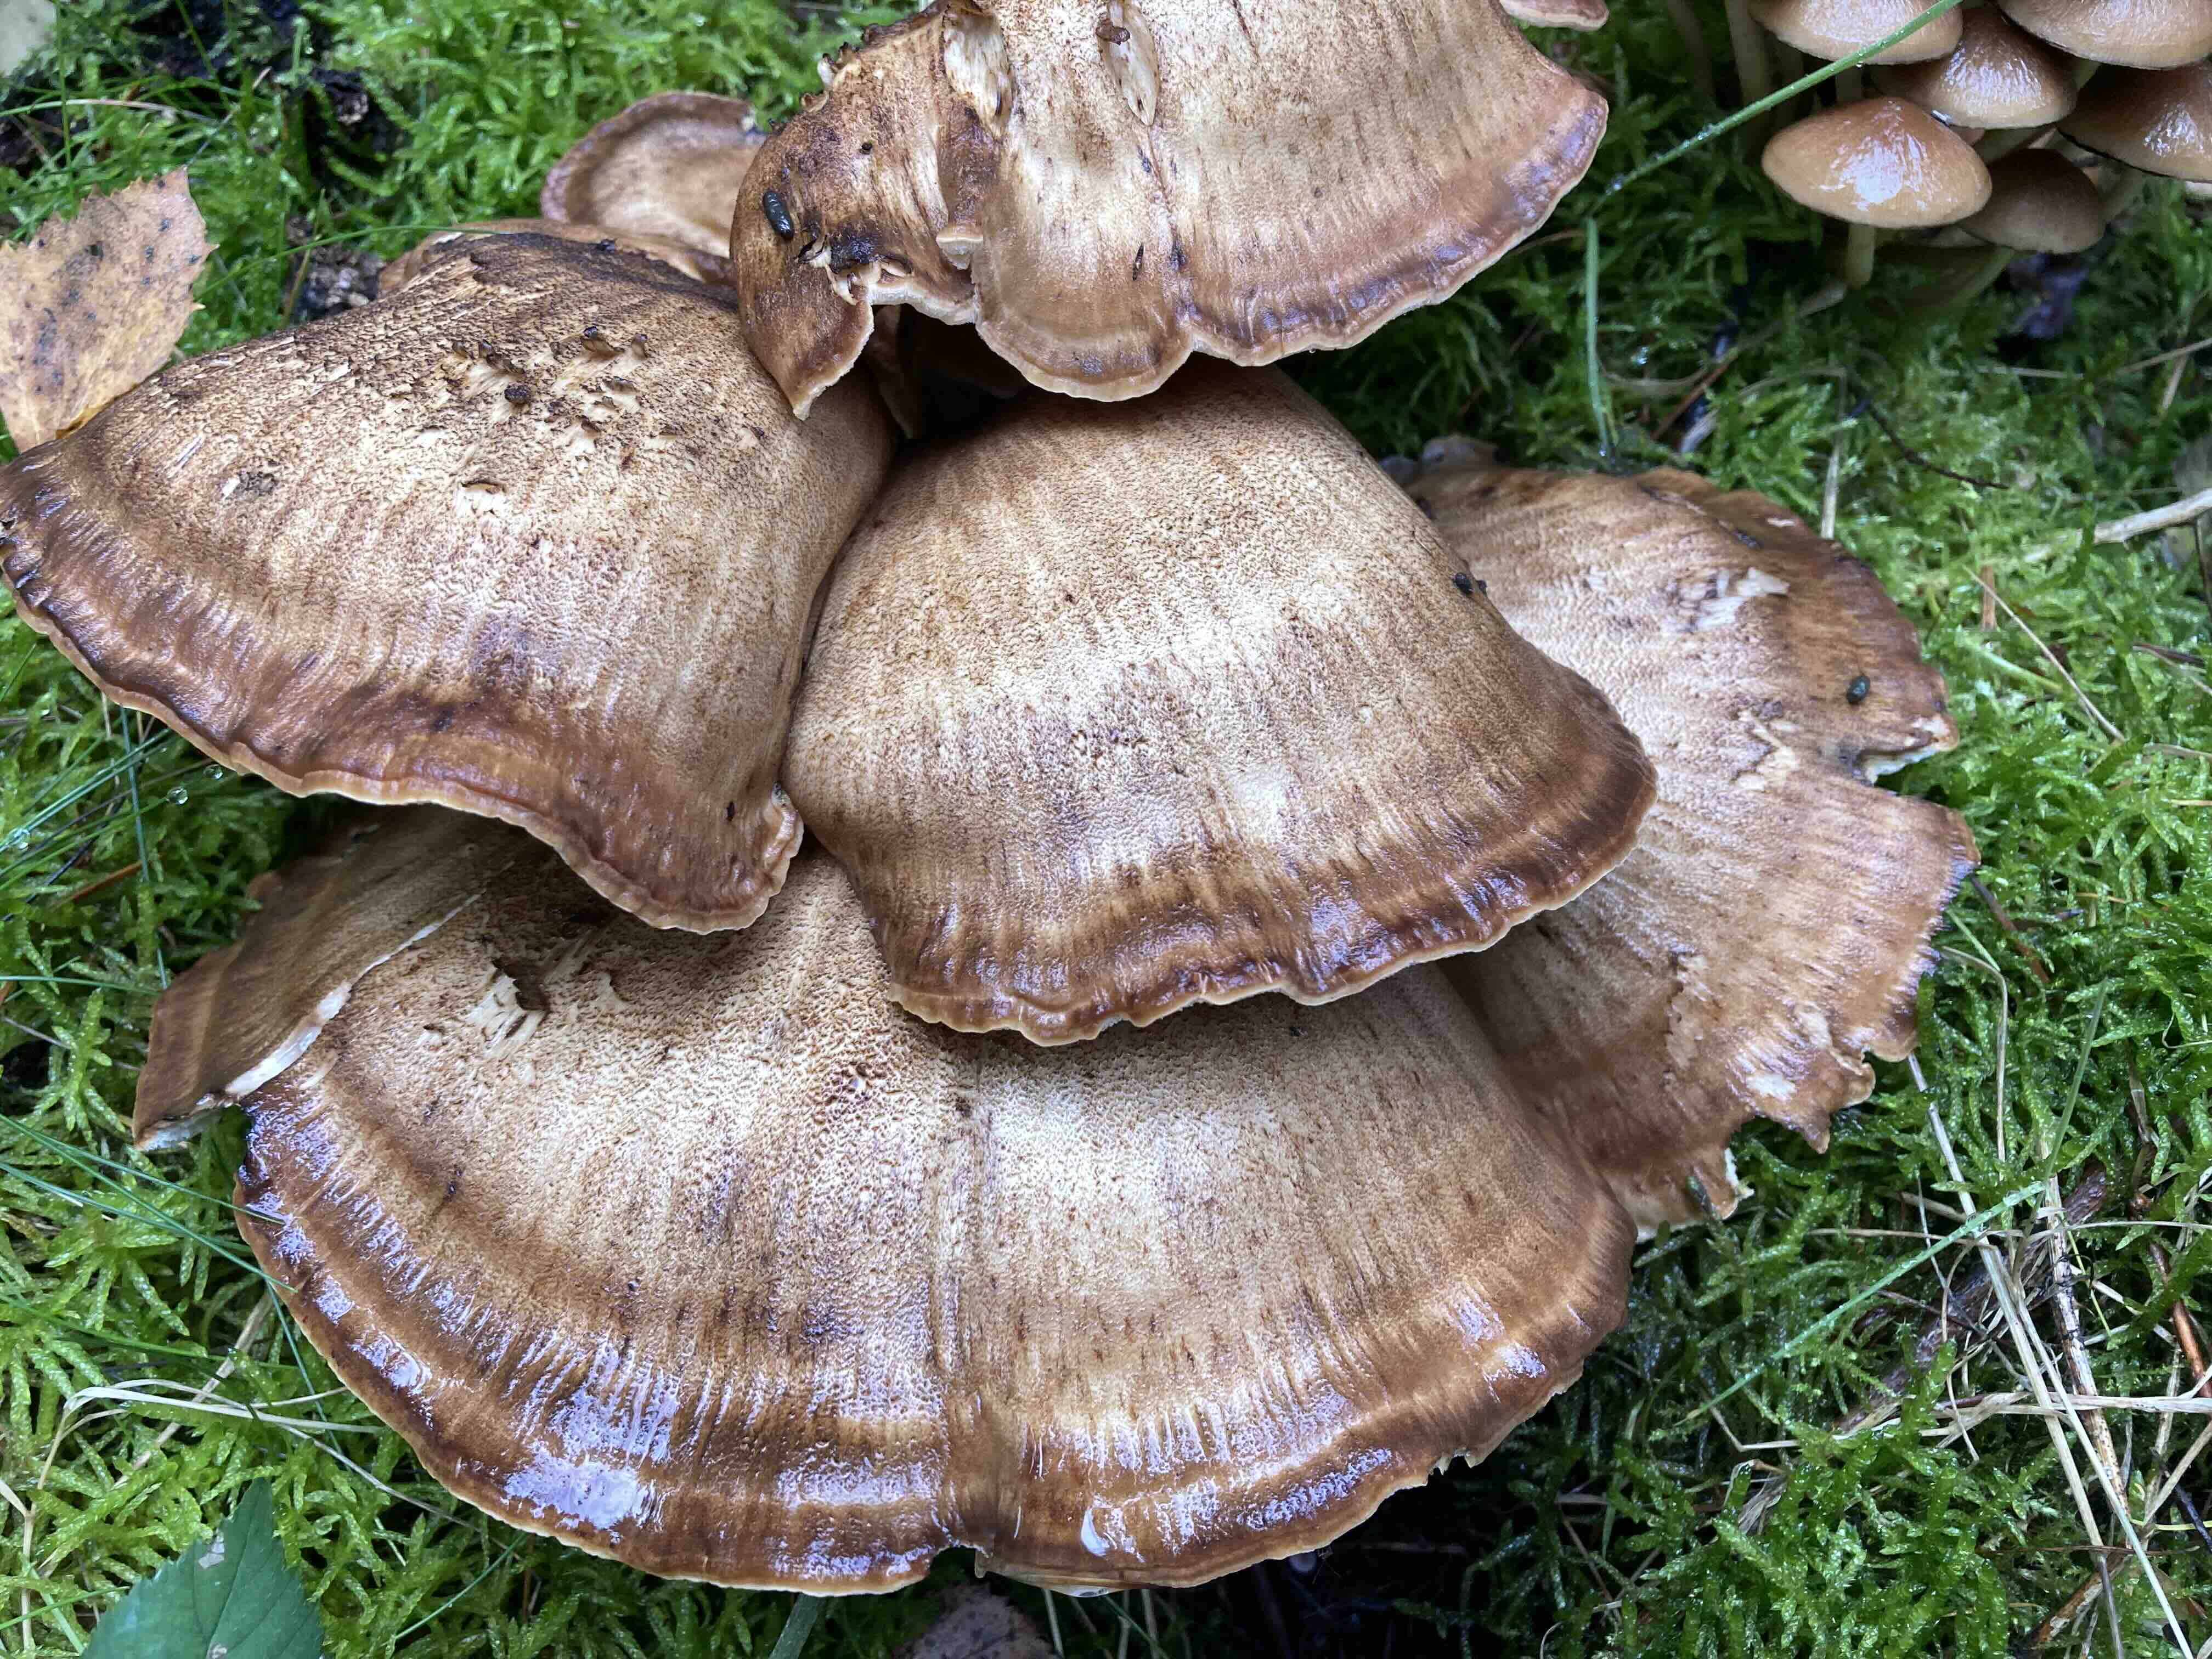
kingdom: Fungi
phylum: Basidiomycota
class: Agaricomycetes
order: Polyporales
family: Meripilaceae
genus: Meripilus
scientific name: Meripilus giganteus
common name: kæmpeporesvamp
